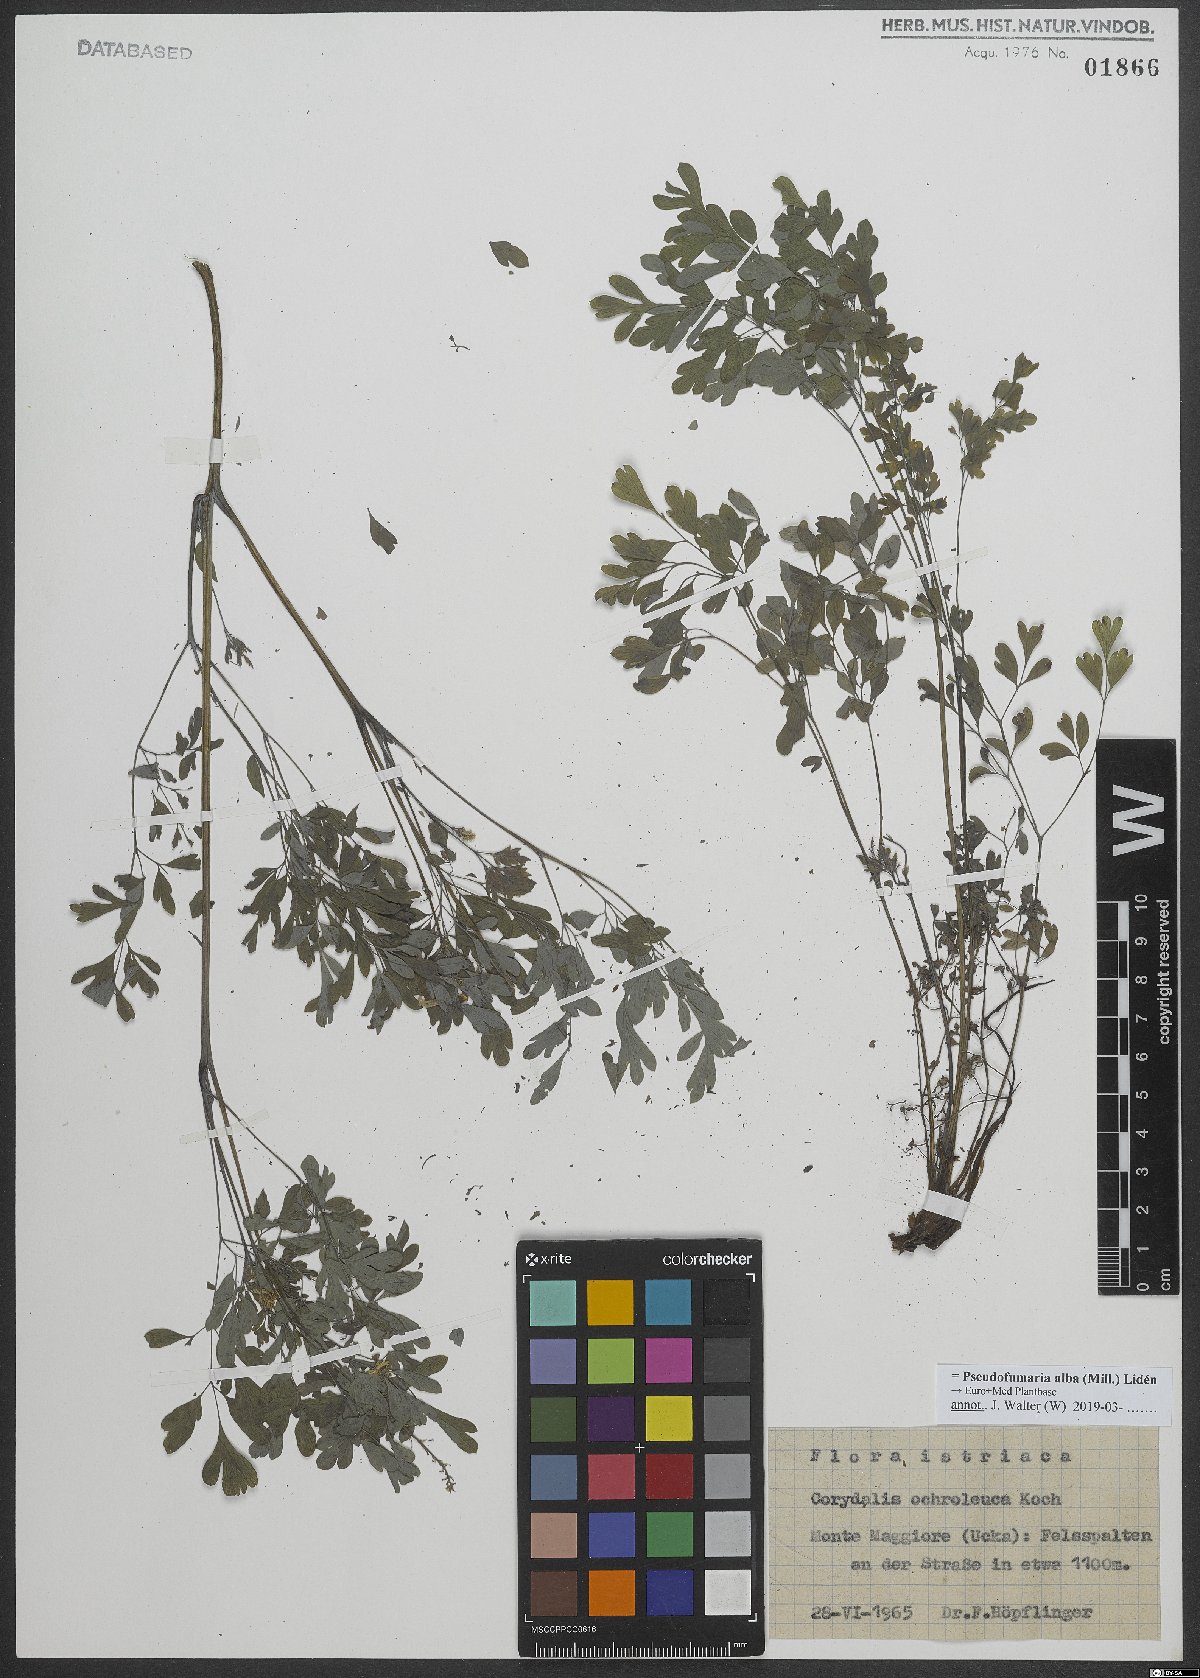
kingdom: Plantae
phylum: Tracheophyta
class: Magnoliopsida
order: Ranunculales
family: Papaveraceae
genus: Pseudofumaria
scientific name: Pseudofumaria alba
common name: Pale corydalis
